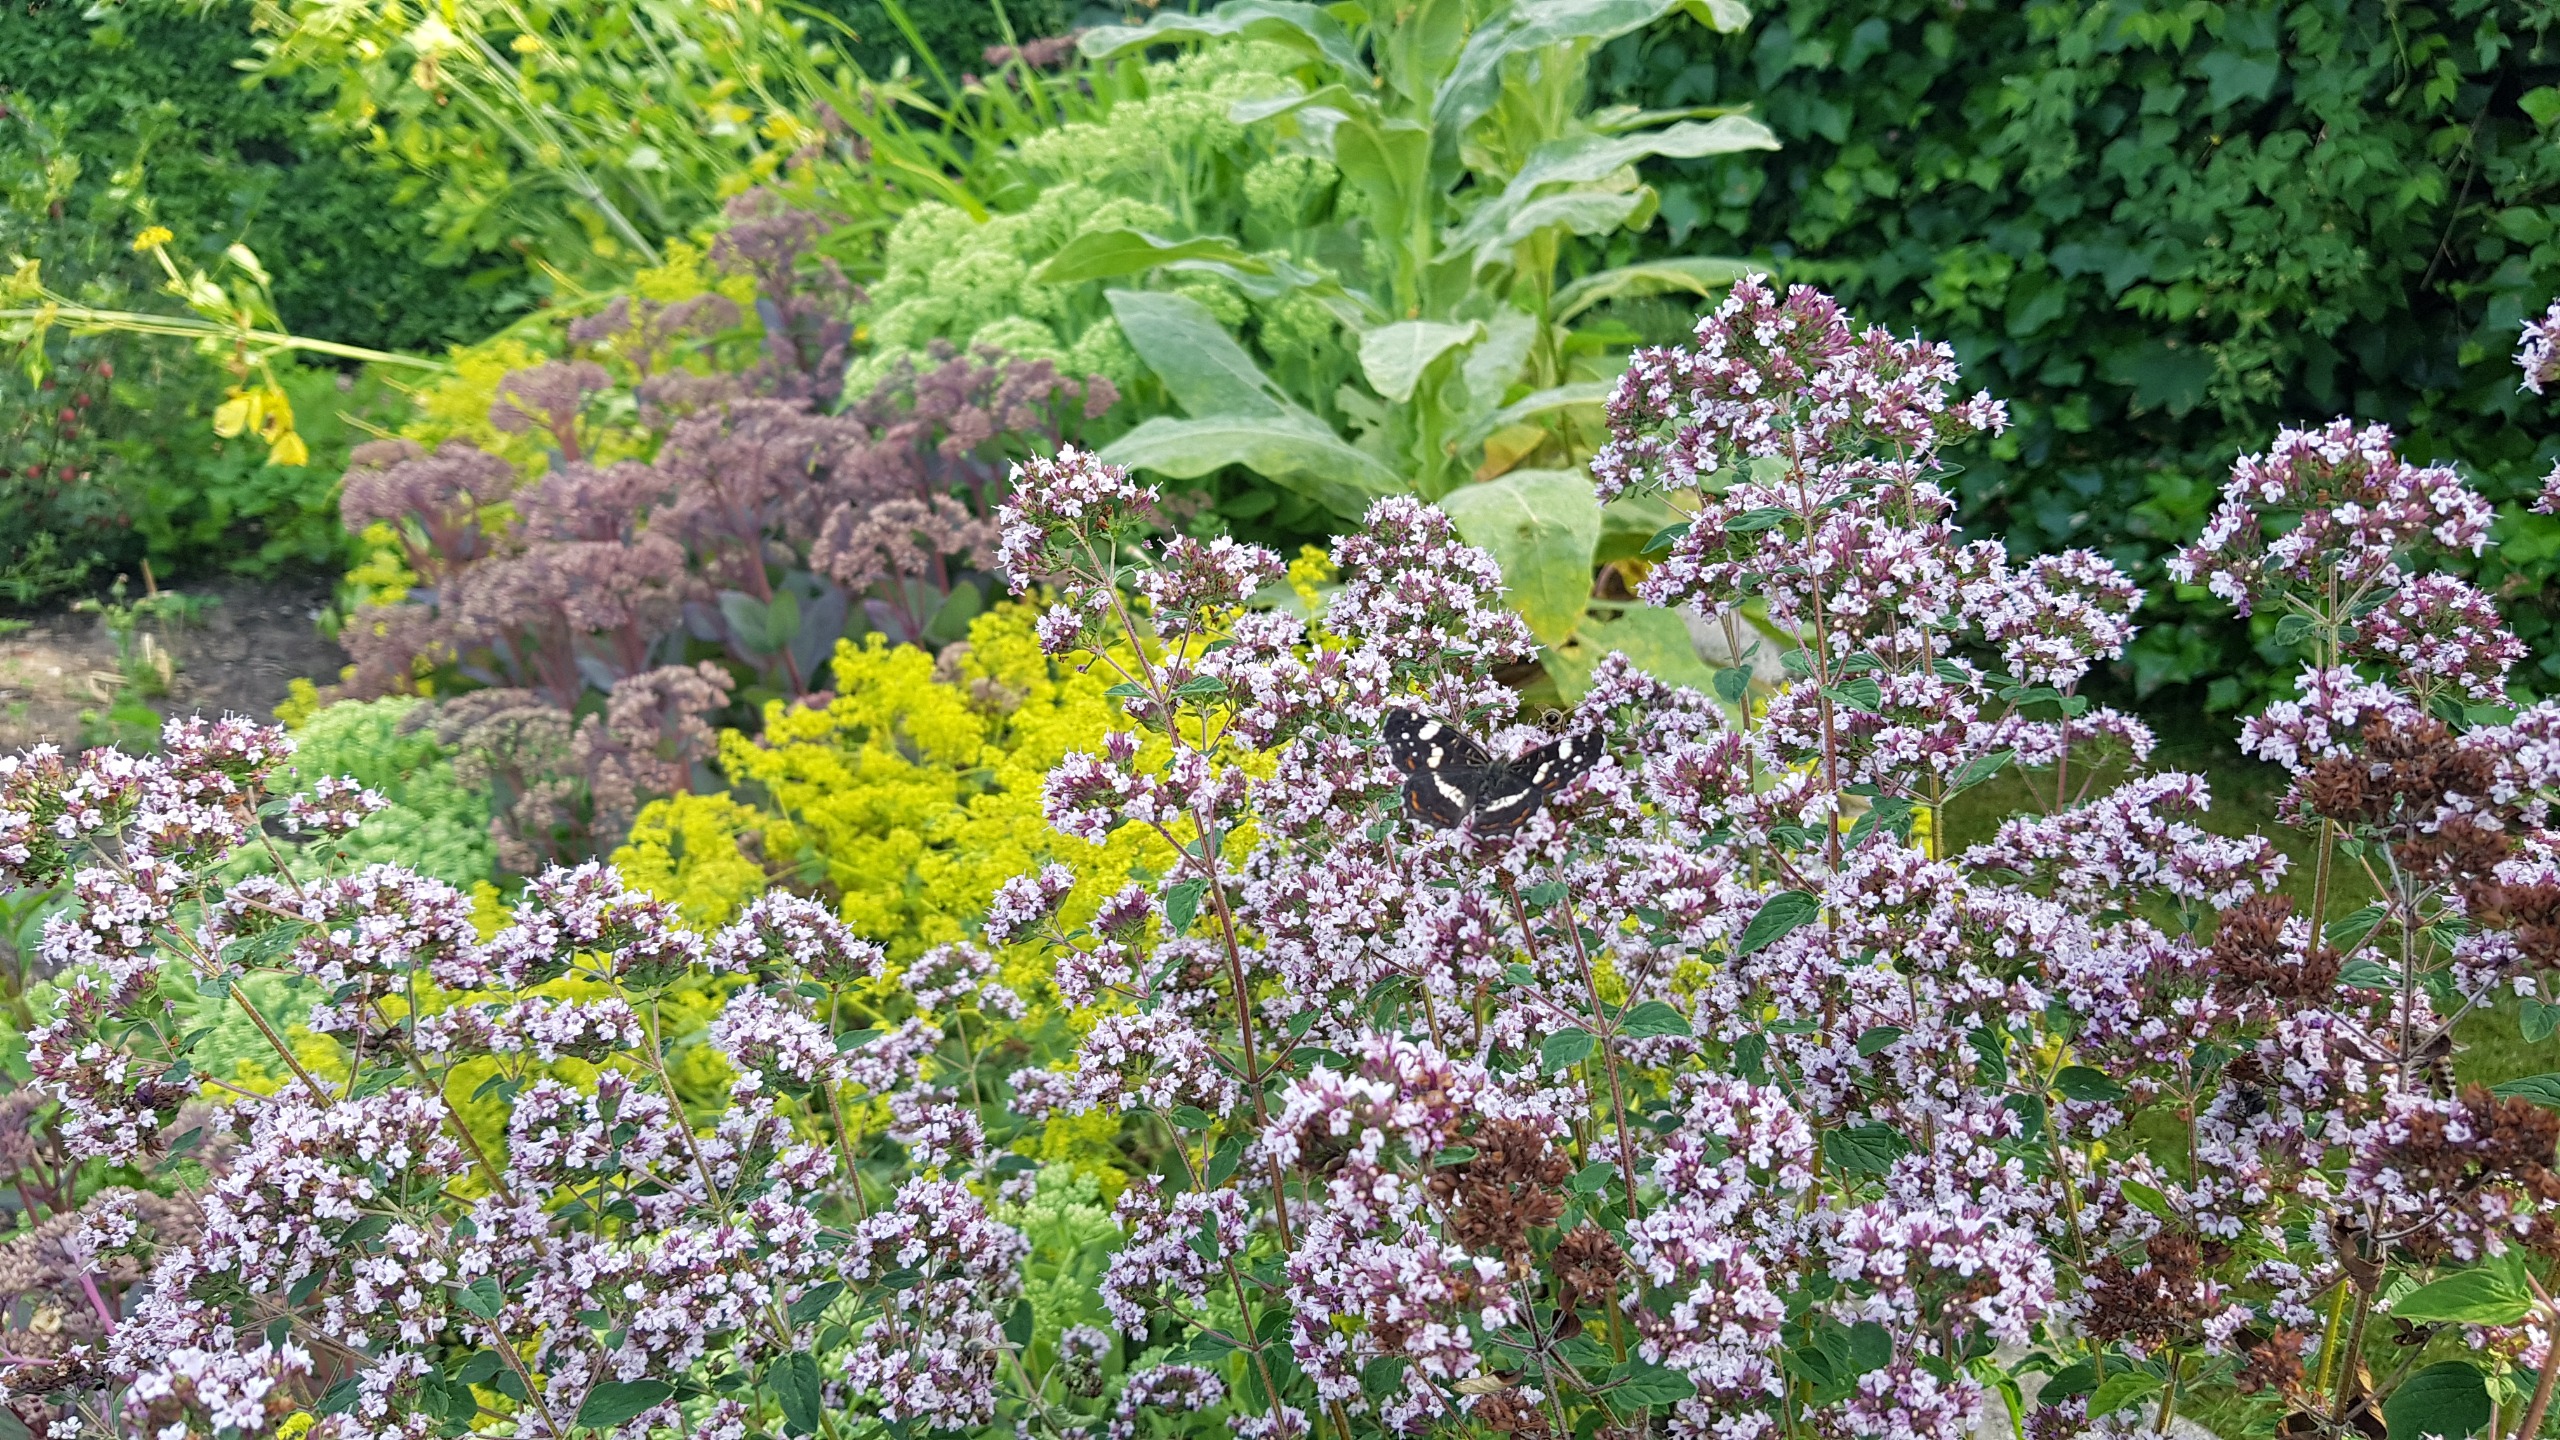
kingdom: Animalia
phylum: Arthropoda
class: Insecta
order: Lepidoptera
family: Nymphalidae
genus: Araschnia
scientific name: Araschnia levana
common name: Nældesommerfugl
